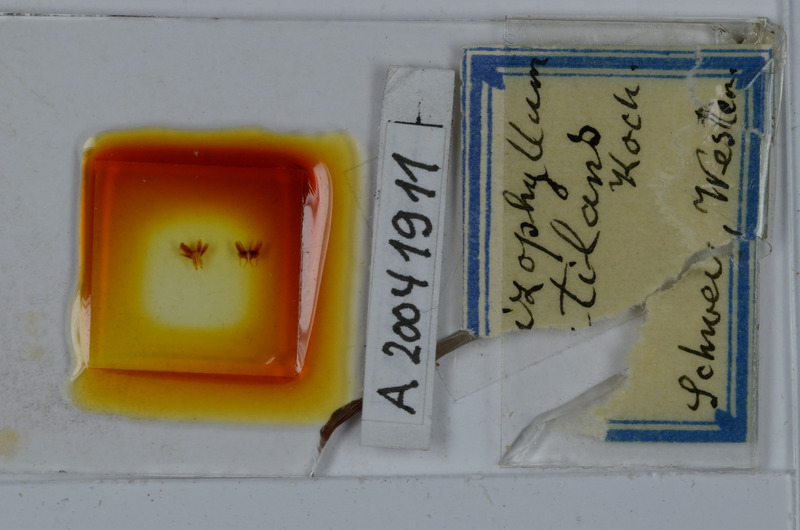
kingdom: Animalia
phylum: Arthropoda
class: Diplopoda
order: Julida
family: Julidae
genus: Ommatoiulus
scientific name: Ommatoiulus rutilans
